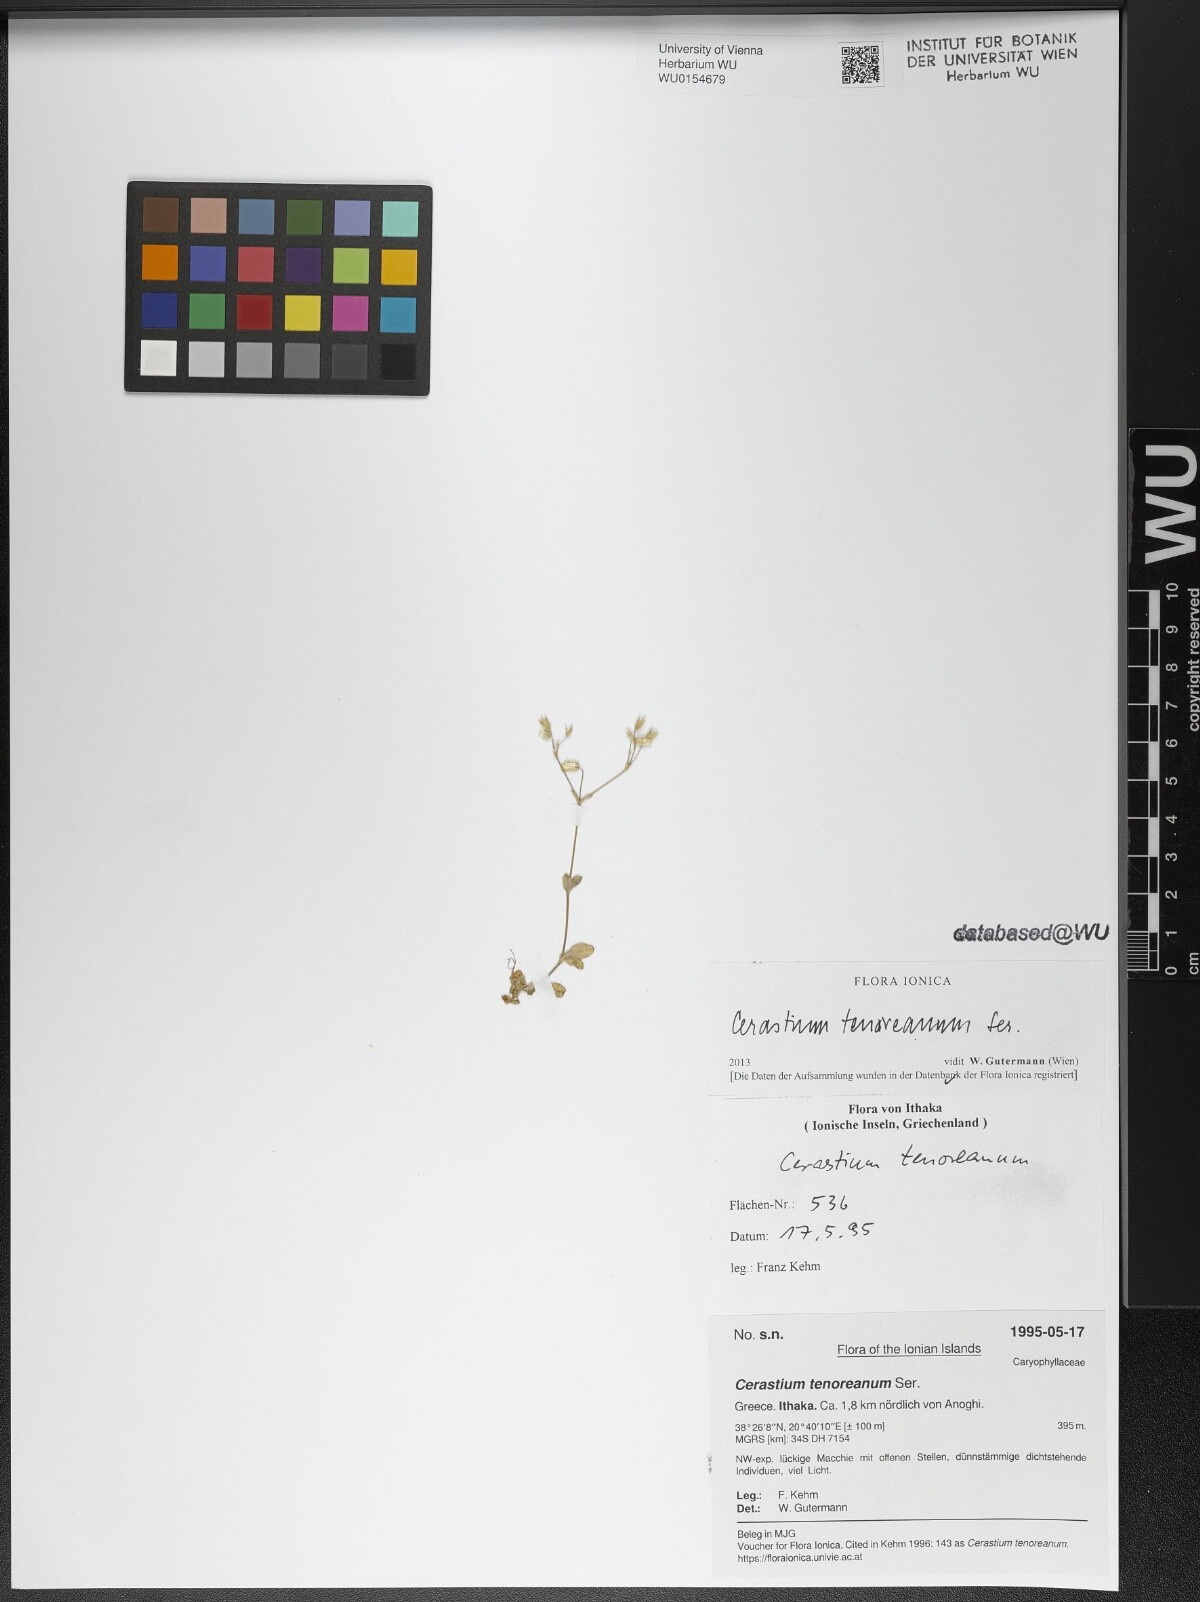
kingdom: Plantae
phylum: Tracheophyta
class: Magnoliopsida
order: Caryophyllales
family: Caryophyllaceae
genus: Cerastium
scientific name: Cerastium tenoreanum
